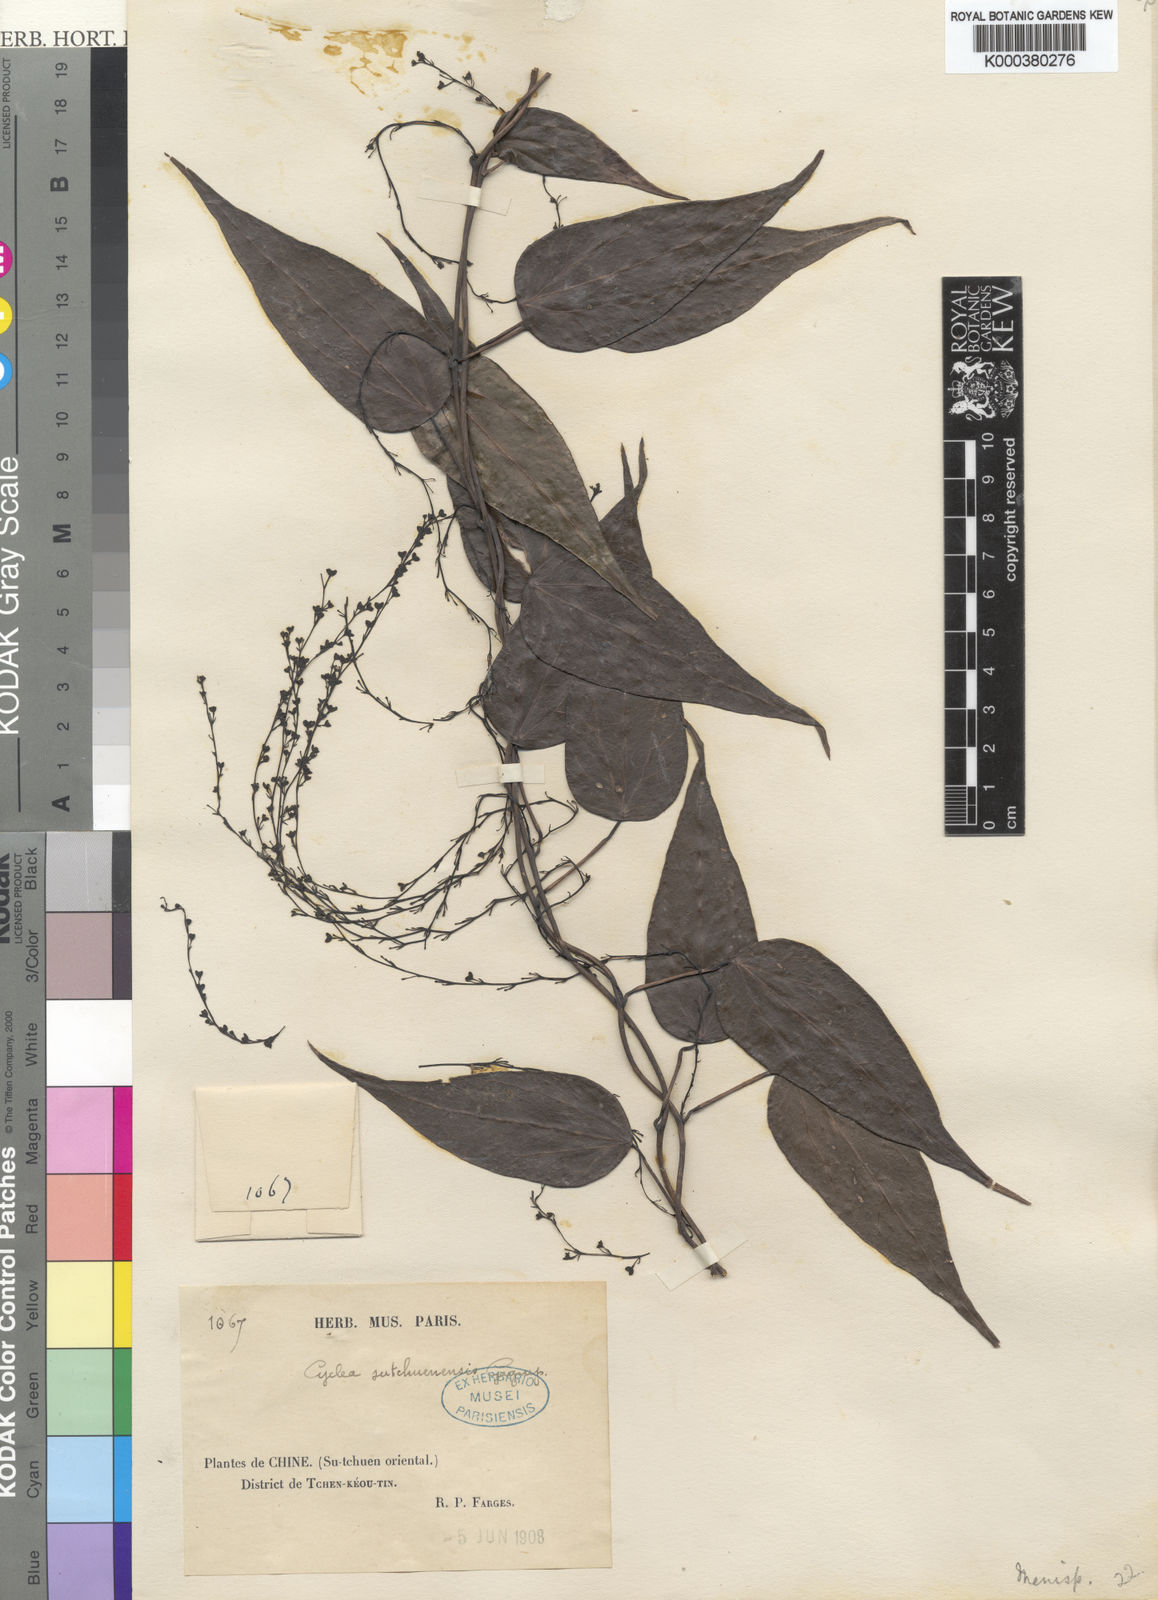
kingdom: Plantae
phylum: Tracheophyta
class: Magnoliopsida
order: Ranunculales
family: Menispermaceae
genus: Cyclea
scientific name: Cyclea sutchuenensis
